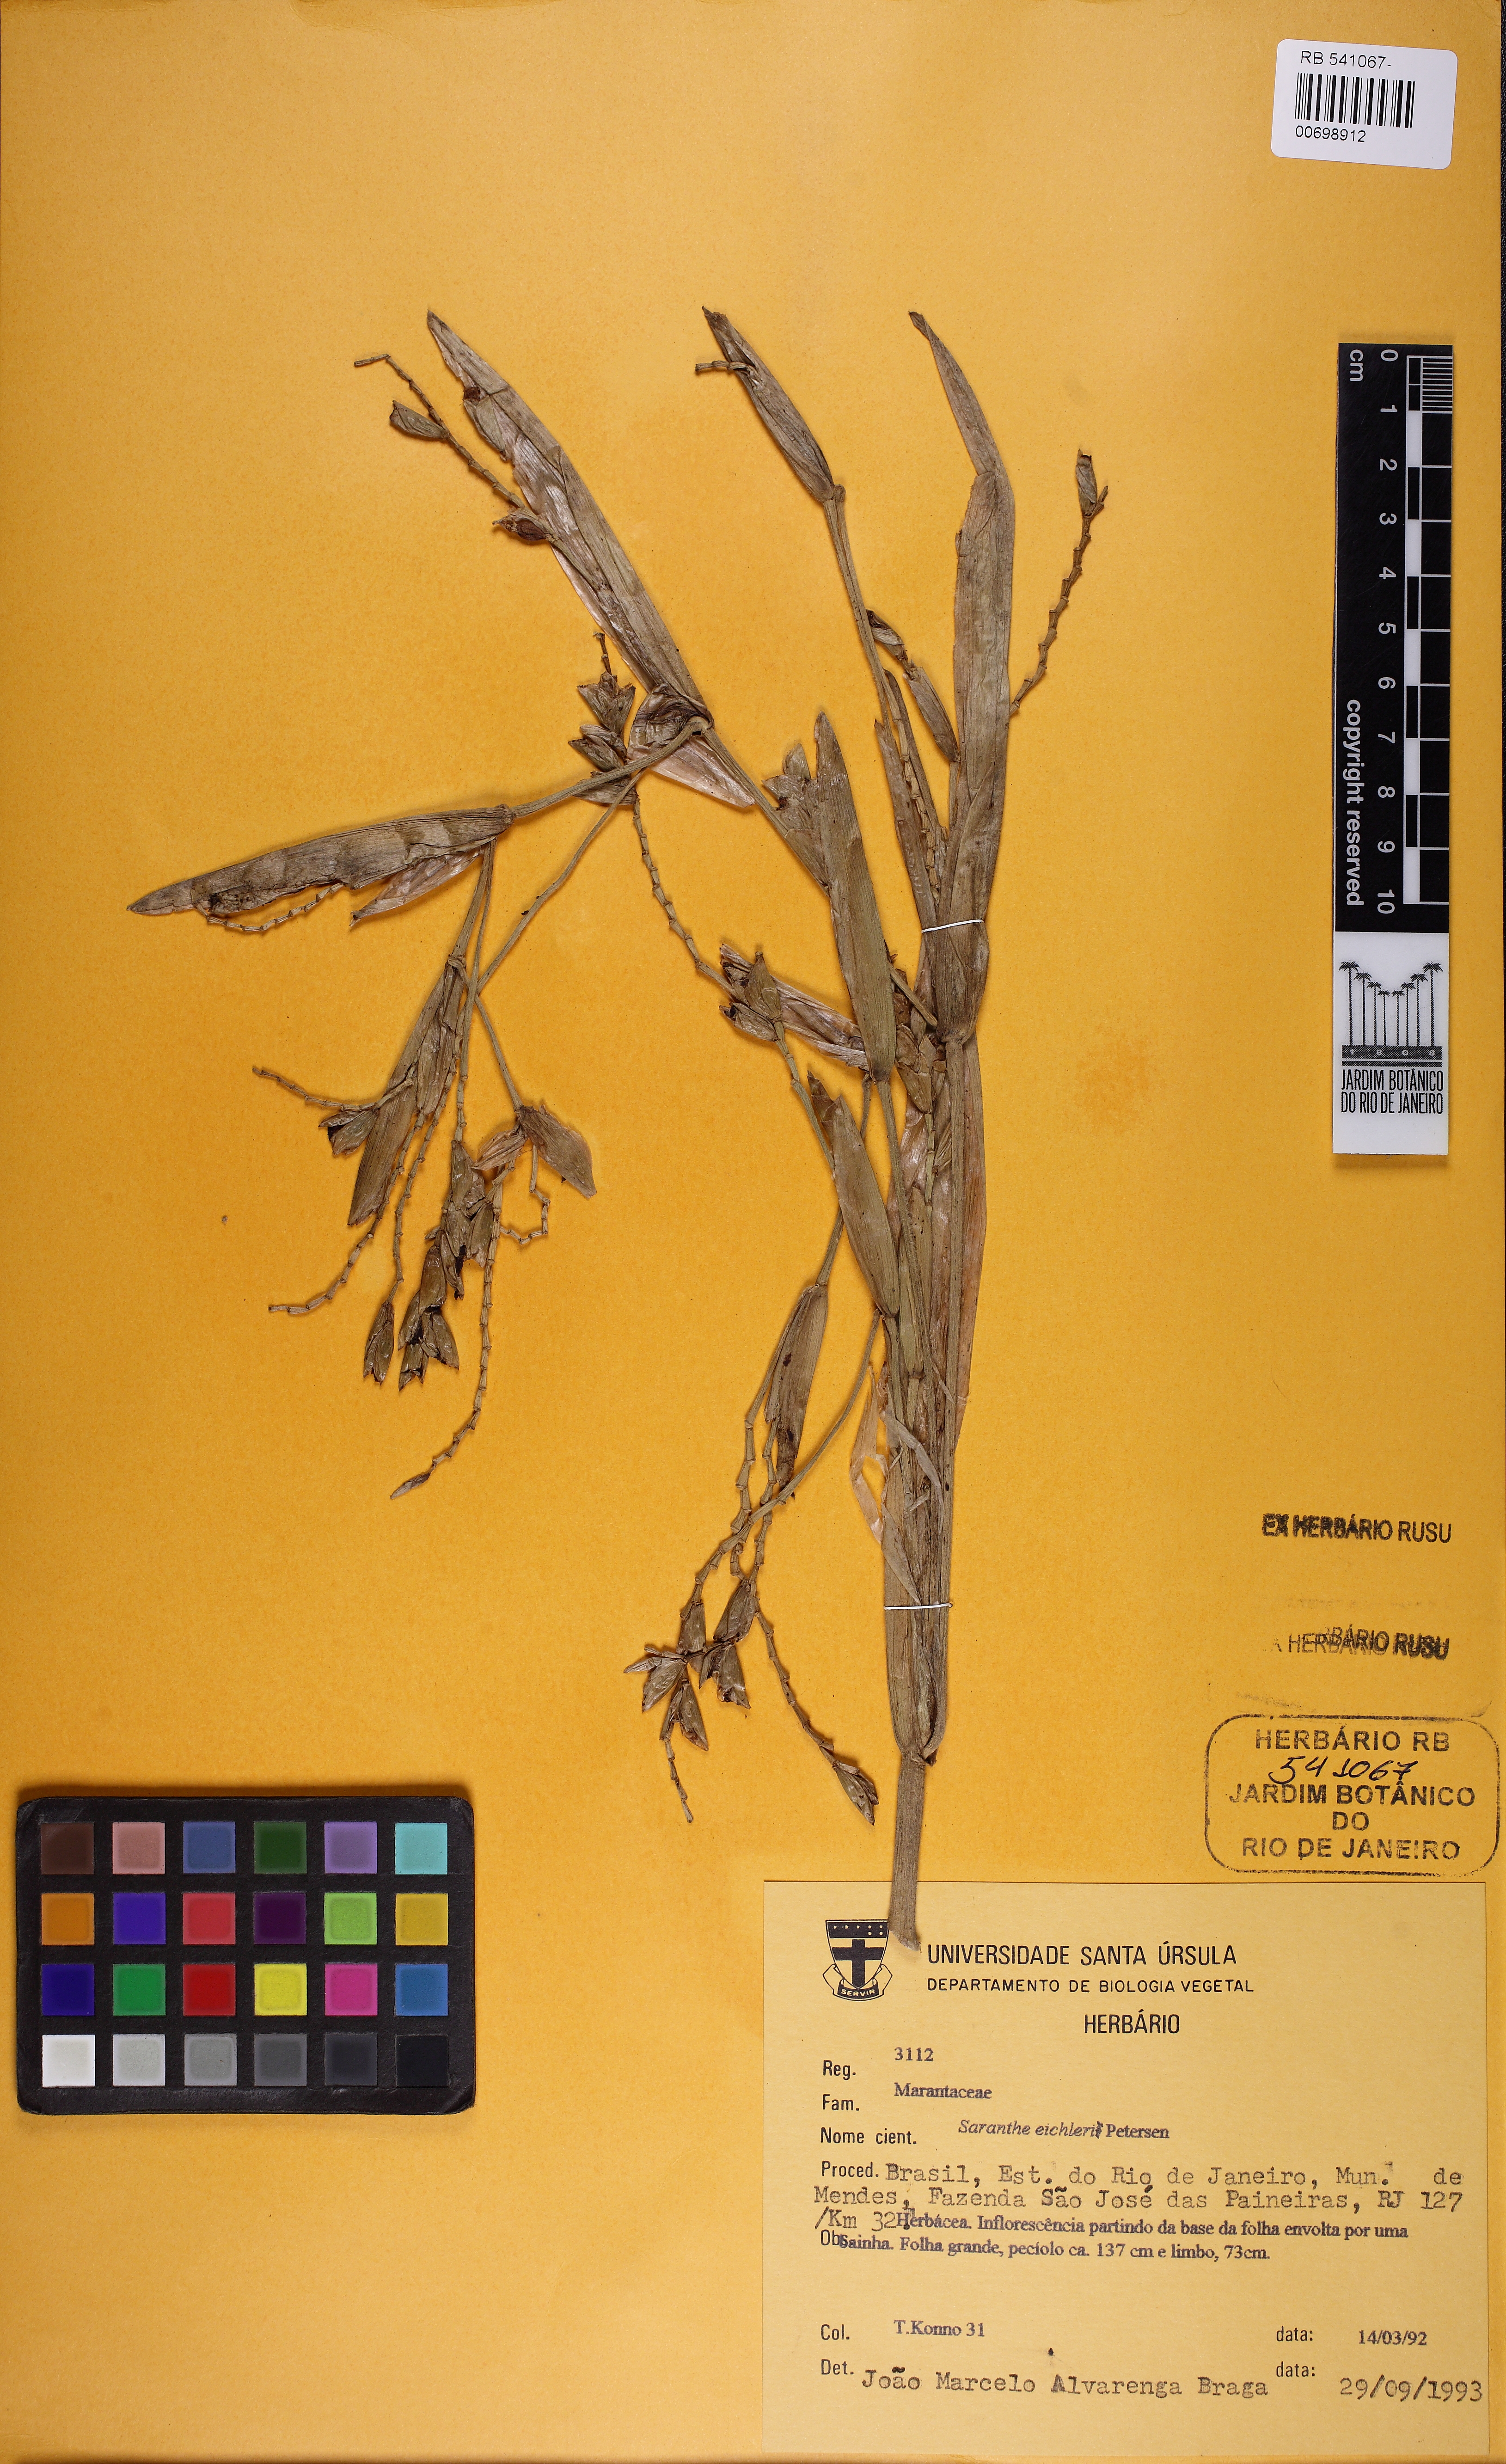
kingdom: Plantae
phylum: Tracheophyta
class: Liliopsida
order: Zingiberales
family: Marantaceae
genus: Saranthe
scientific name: Saranthe eichleri
